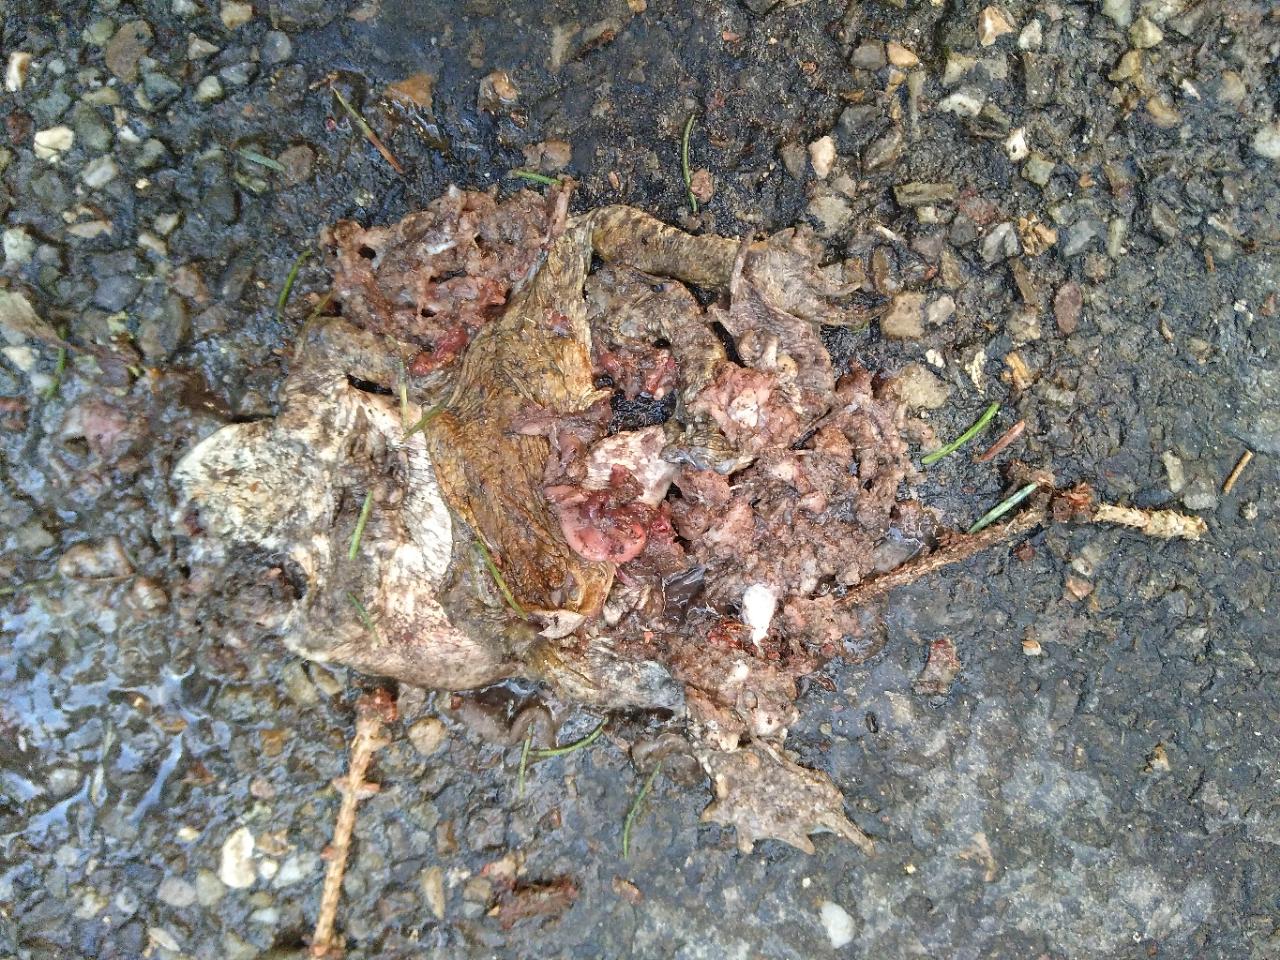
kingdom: Animalia
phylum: Chordata
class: Amphibia
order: Anura
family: Bufonidae
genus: Bufo
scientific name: Bufo bufo
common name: Common toad
